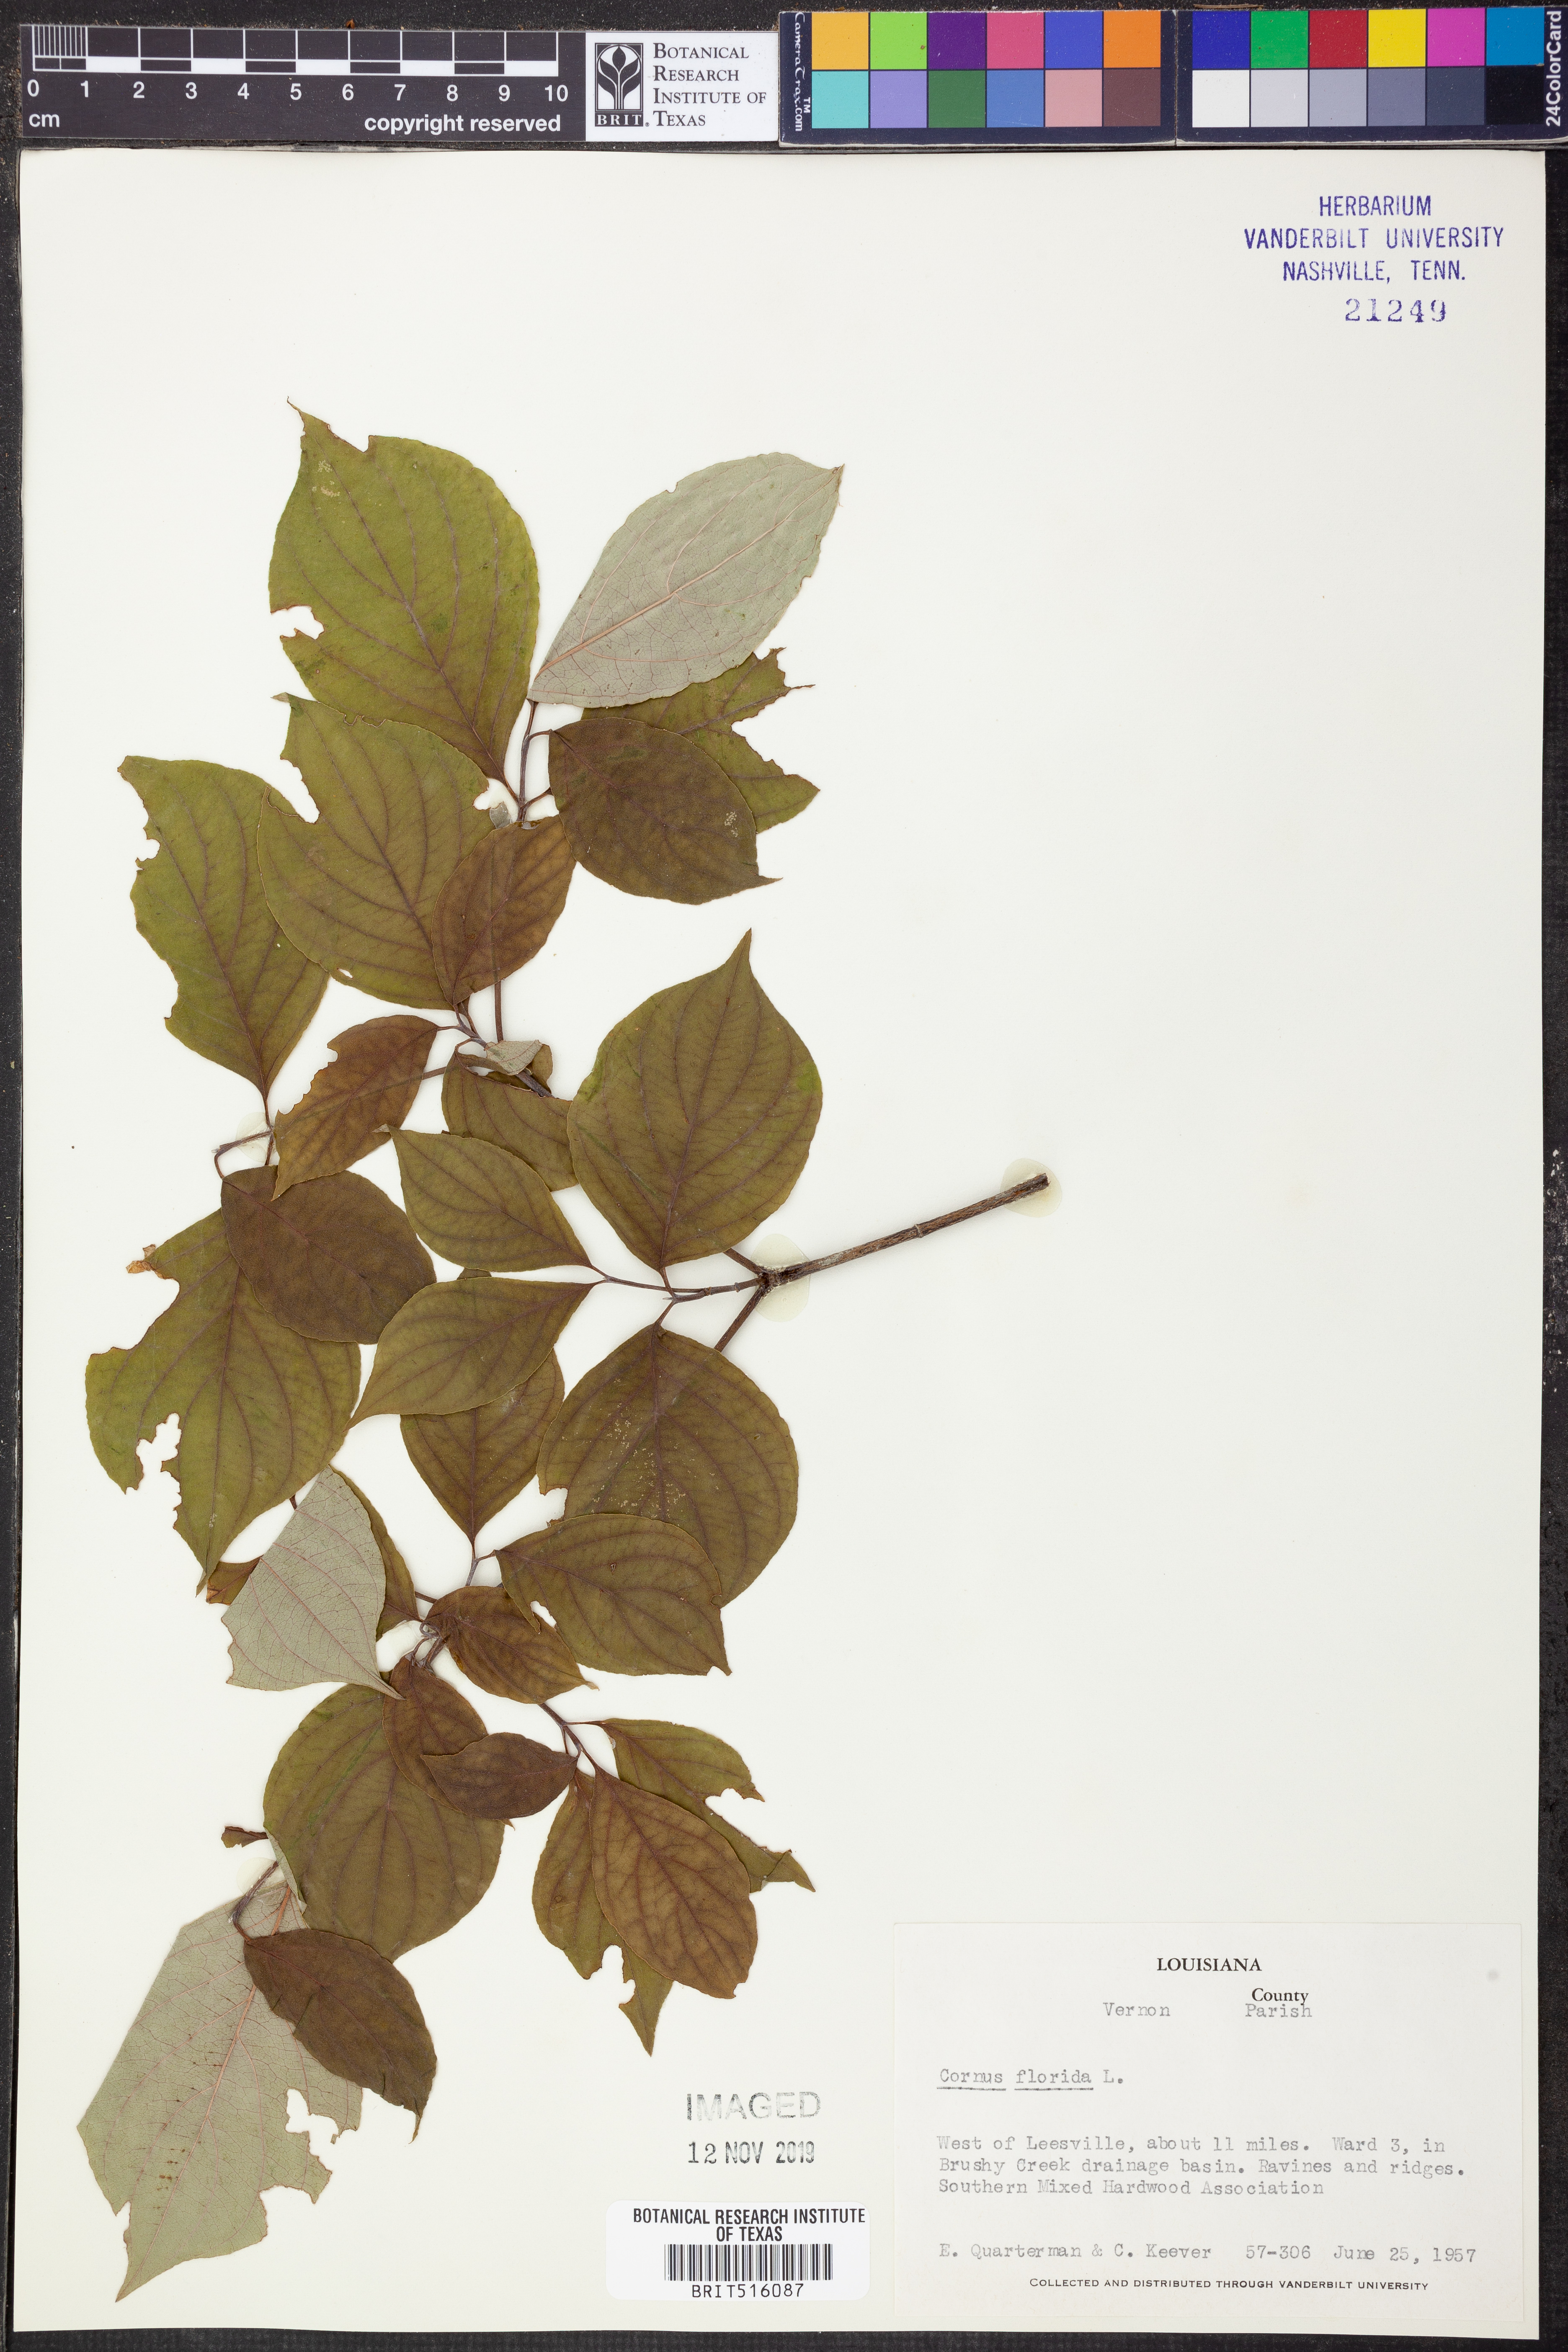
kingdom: Plantae
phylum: Tracheophyta
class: Magnoliopsida
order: Cornales
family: Cornaceae
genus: Cornus
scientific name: Cornus florida
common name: Flowering dogwood
